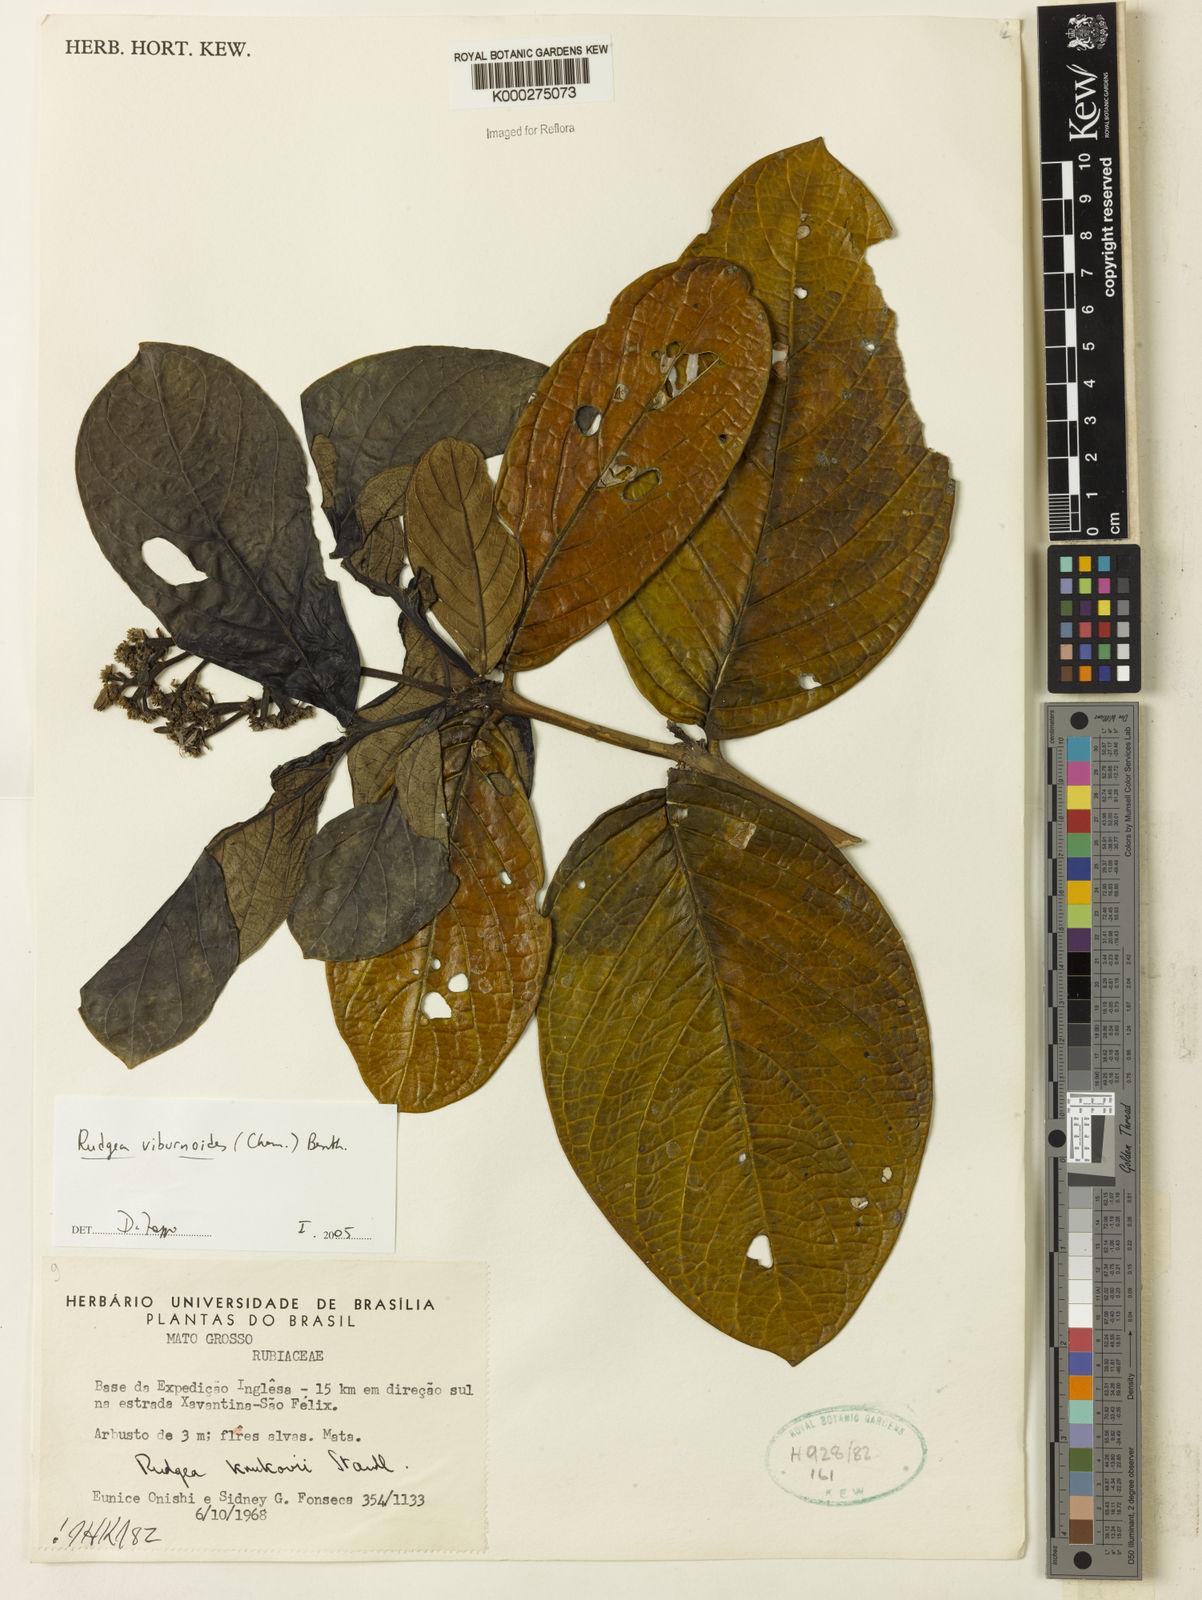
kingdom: Plantae
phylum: Tracheophyta
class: Magnoliopsida
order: Gentianales
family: Rubiaceae
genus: Rudgea
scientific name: Rudgea viburnoides
